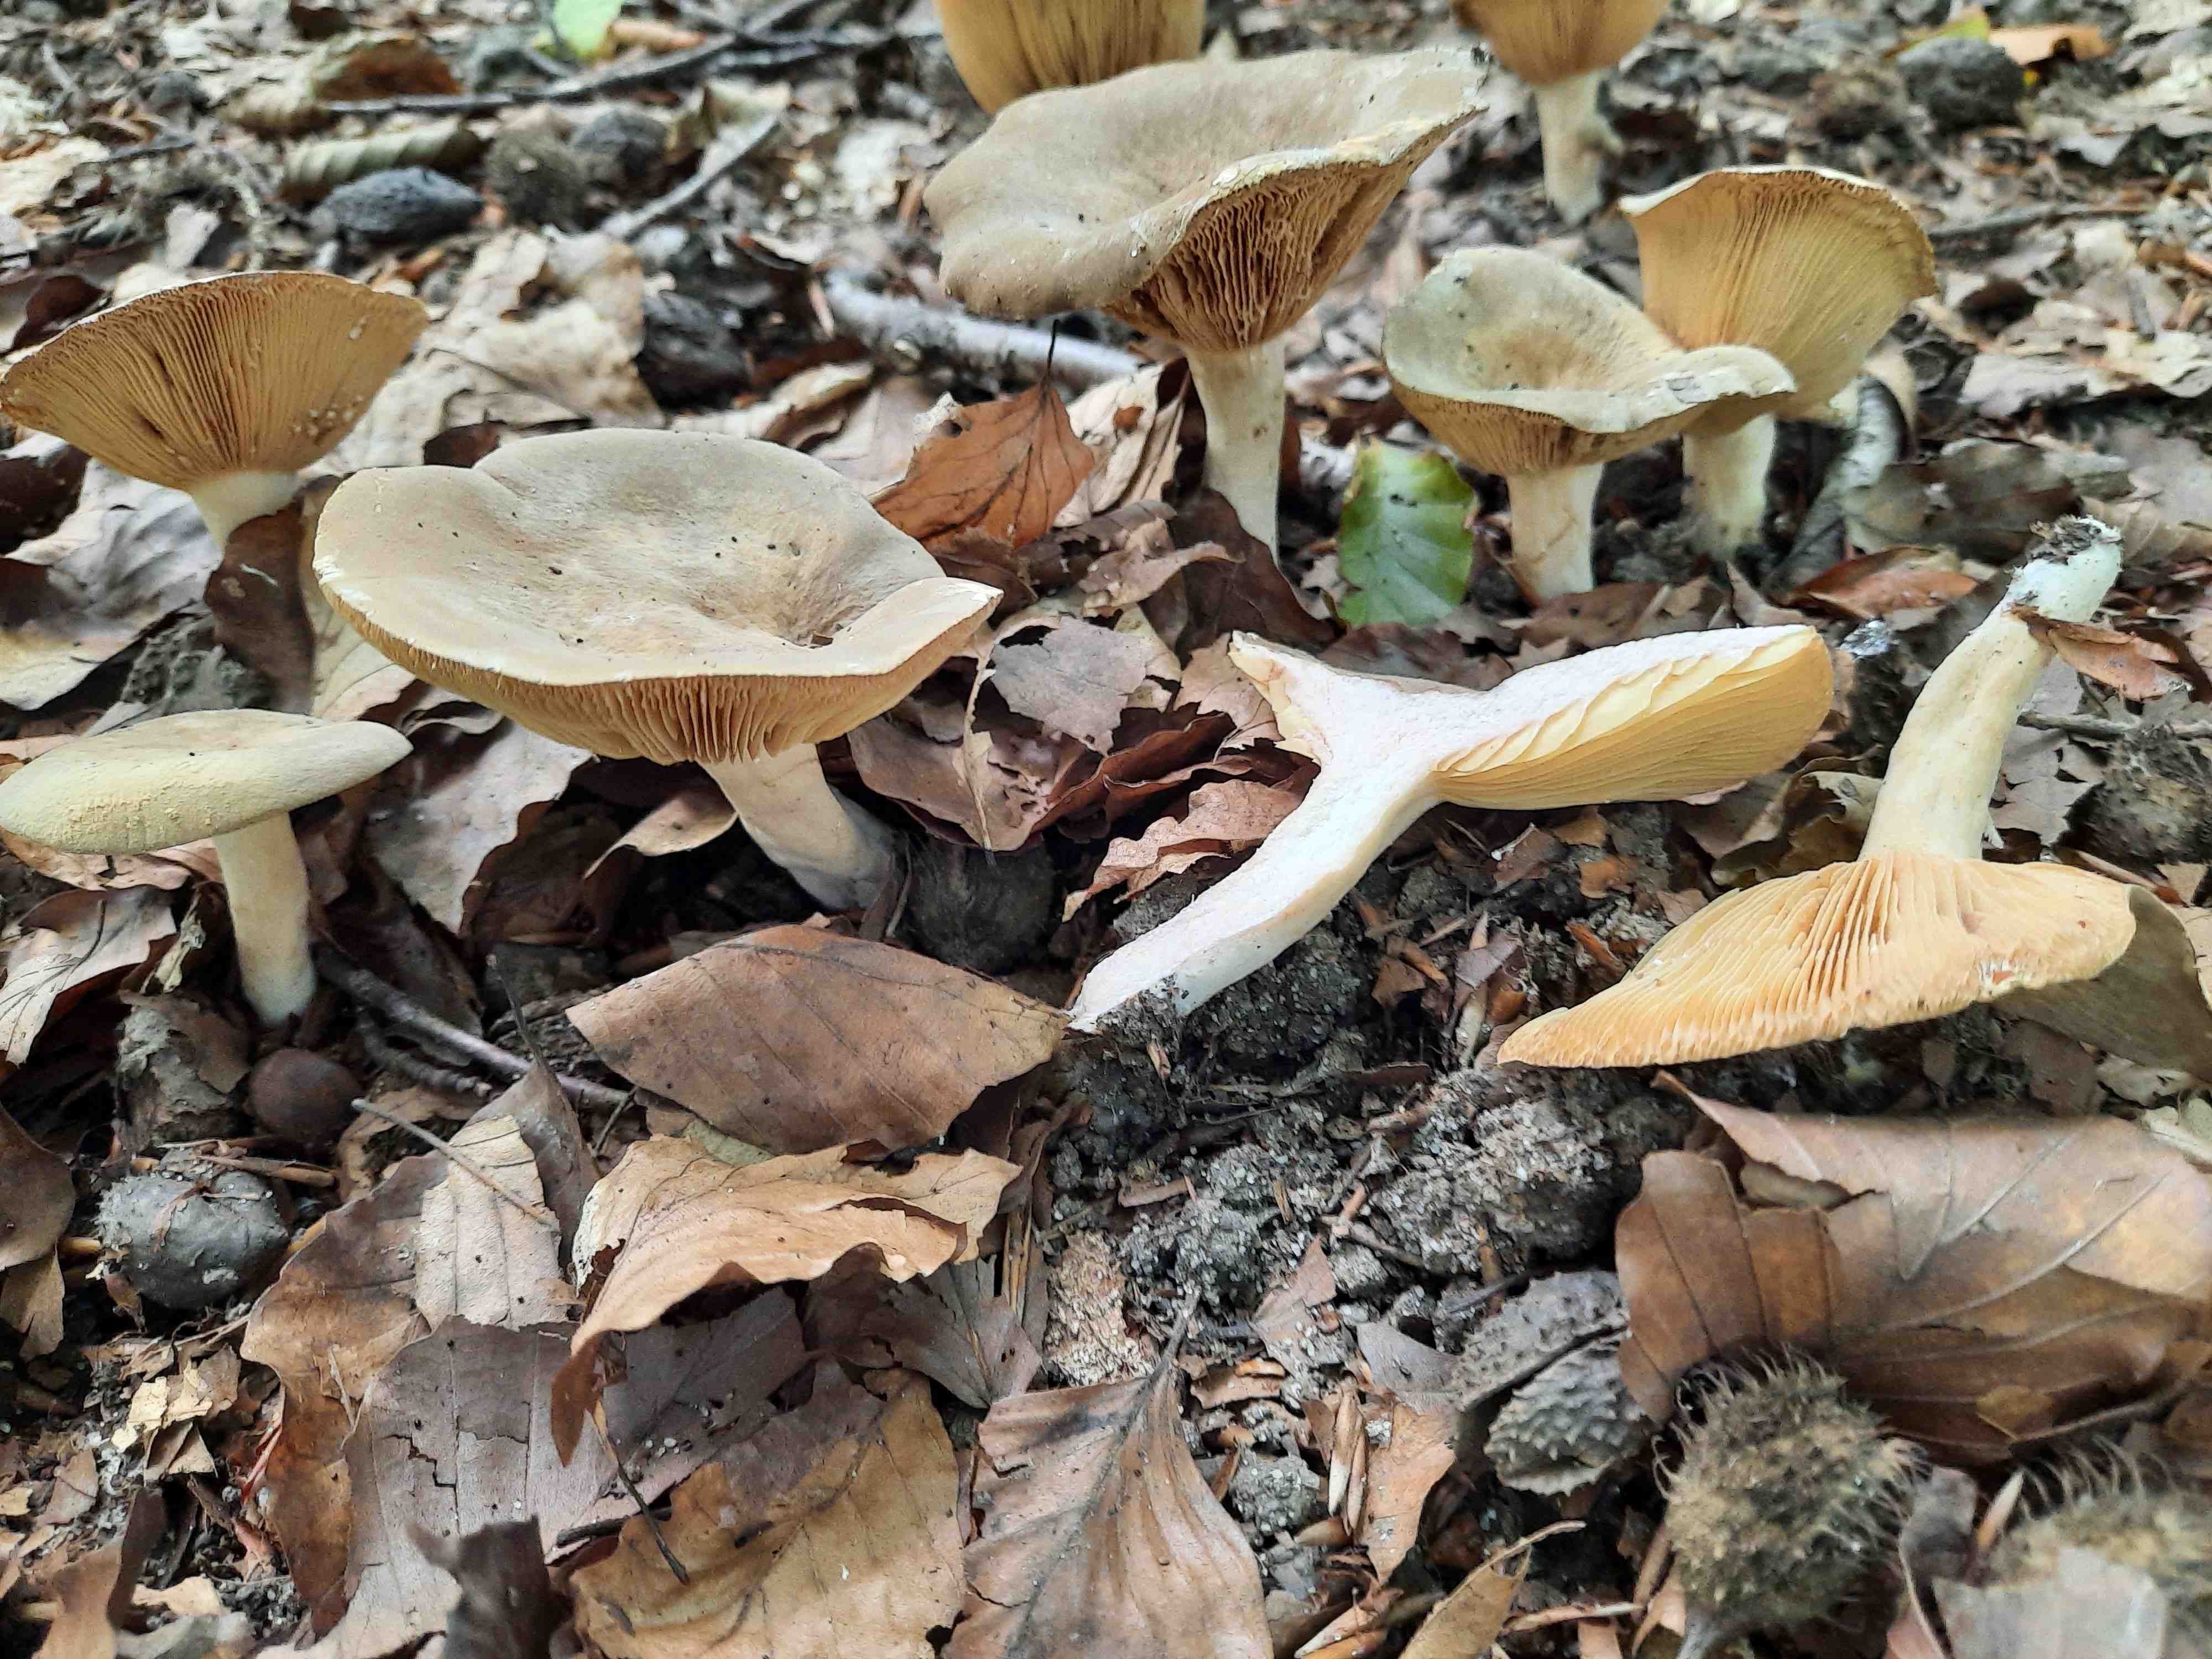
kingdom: Fungi
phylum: Basidiomycota
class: Agaricomycetes
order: Russulales
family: Russulaceae
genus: Lactarius
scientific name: Lactarius pterosporus
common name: vingesporet mælkehat
